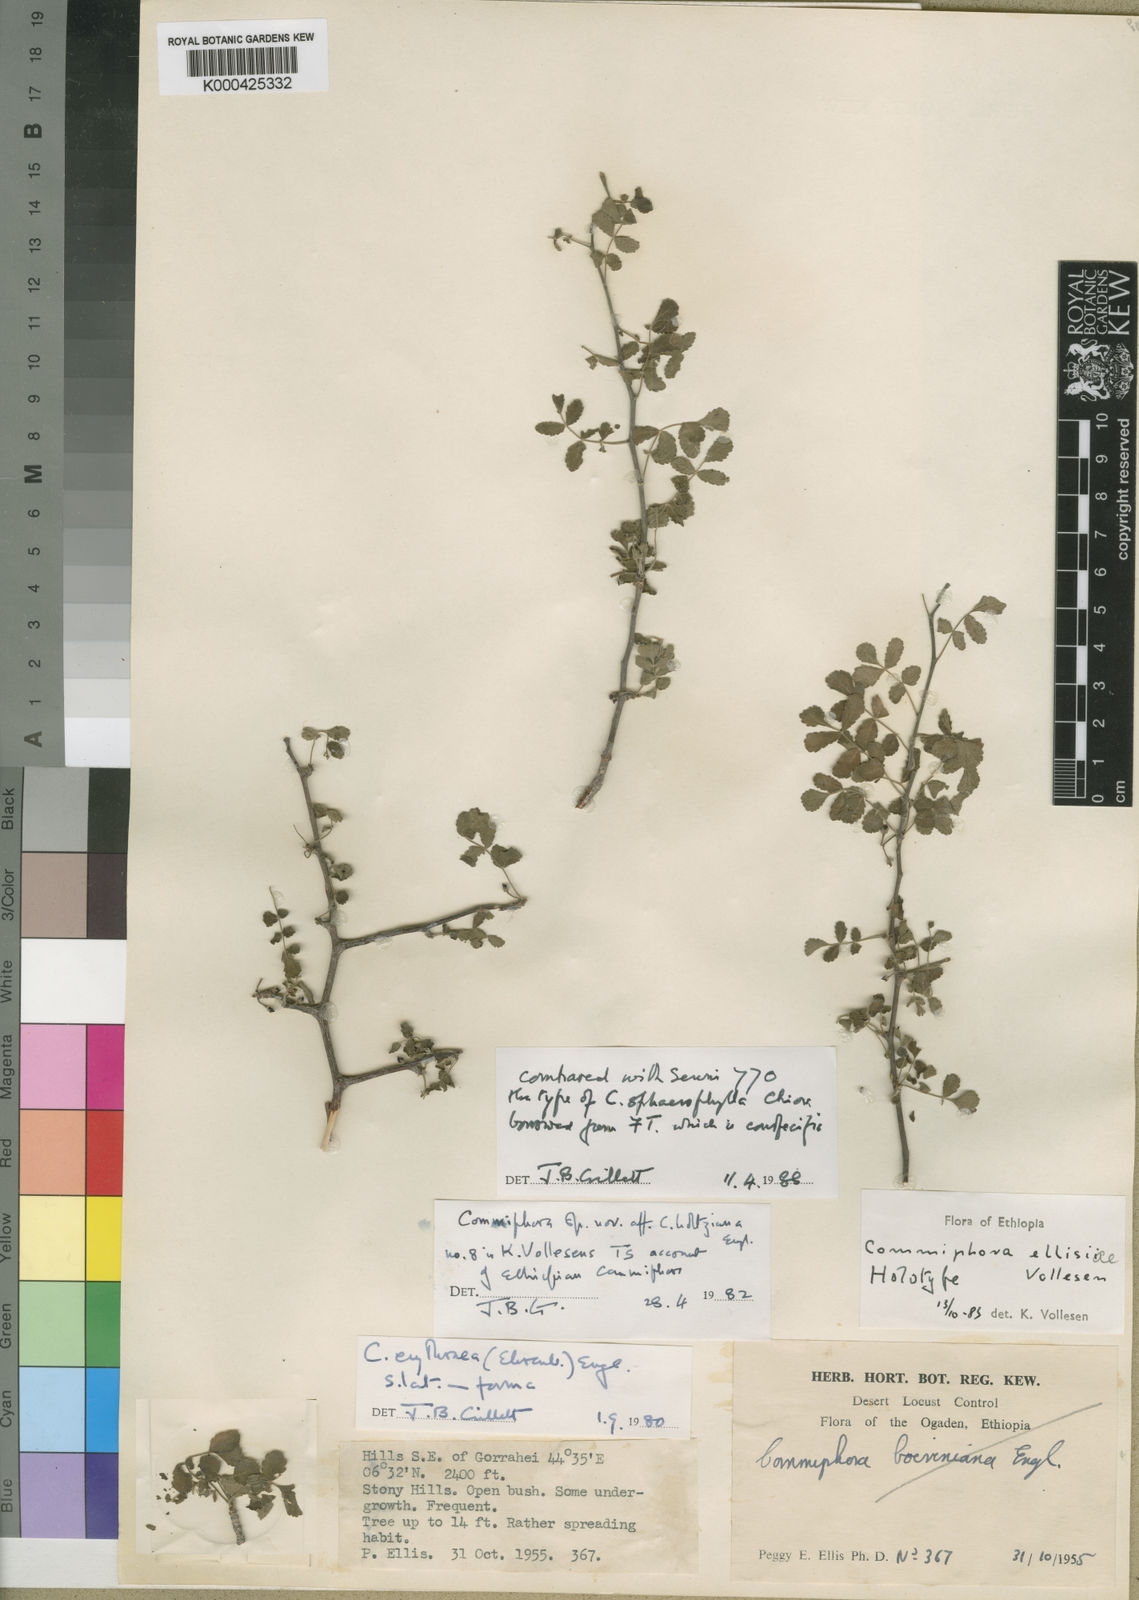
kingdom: Plantae
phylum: Tracheophyta
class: Magnoliopsida
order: Sapindales
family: Burseraceae
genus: Commiphora
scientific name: Commiphora sphaerophylla
